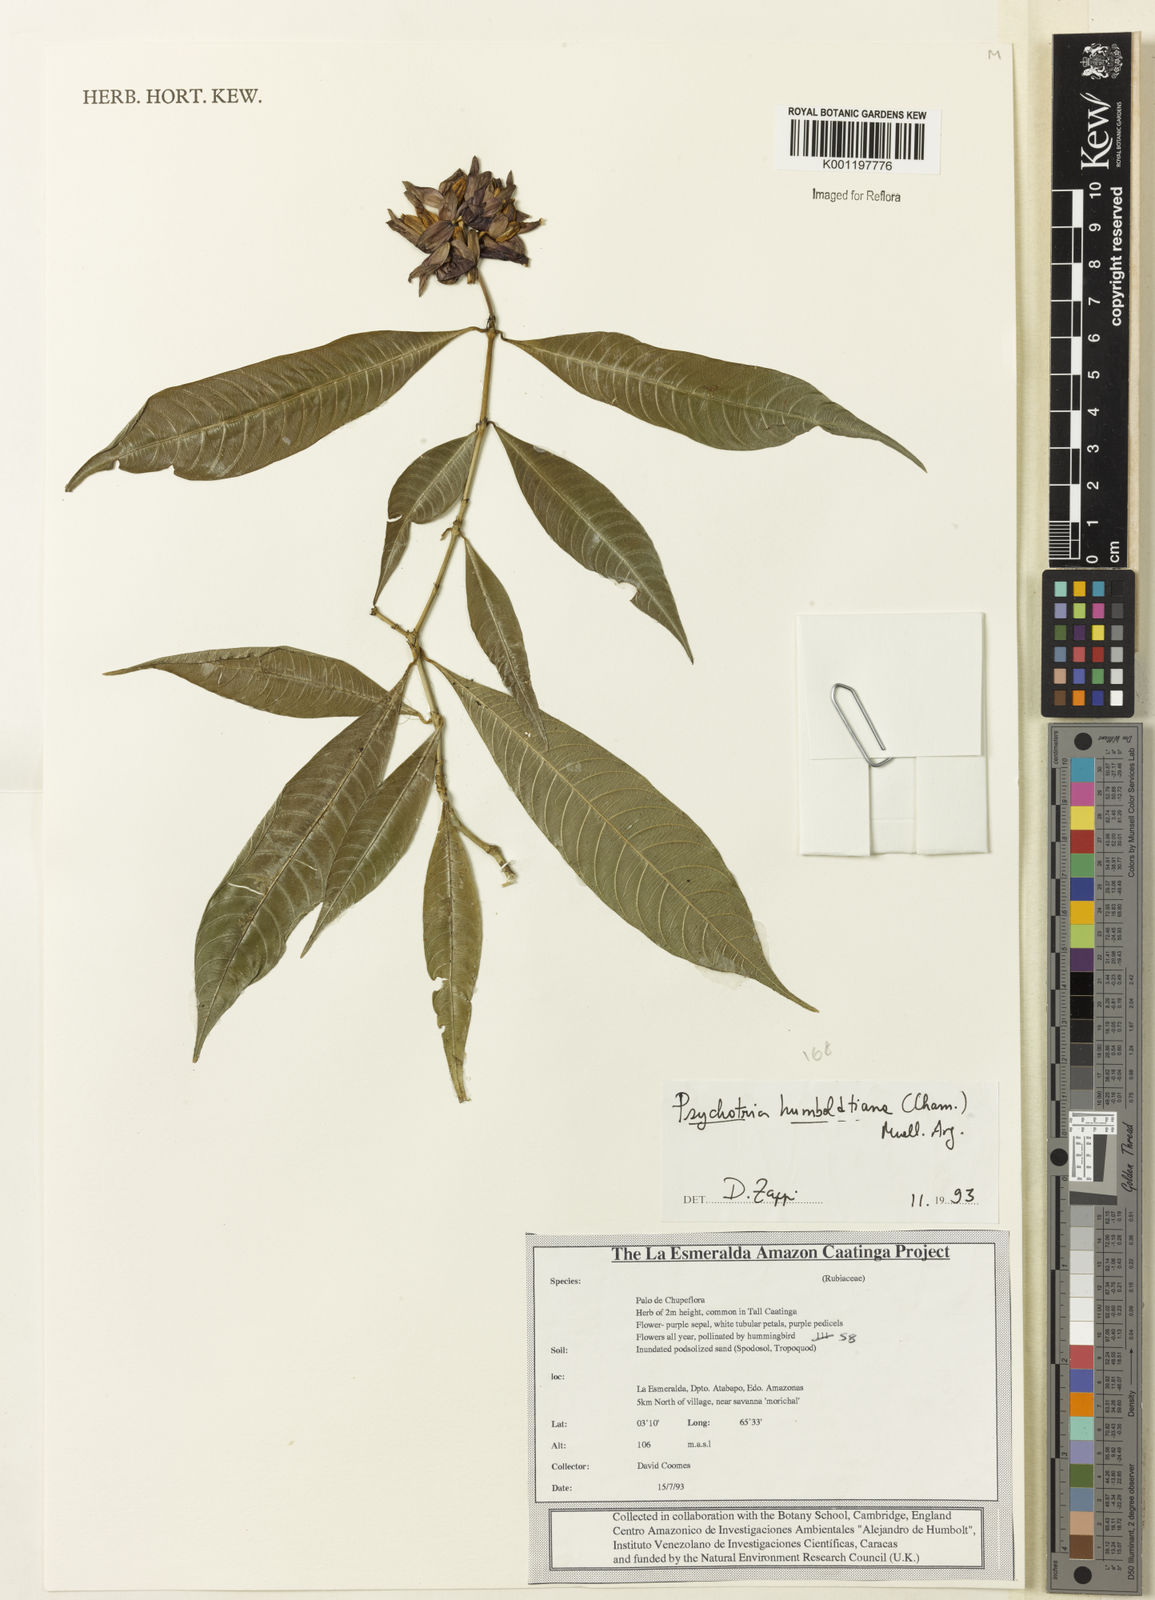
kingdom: Plantae
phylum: Tracheophyta
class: Magnoliopsida
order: Gentianales
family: Rubiaceae
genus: Psychotria
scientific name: Psychotria
